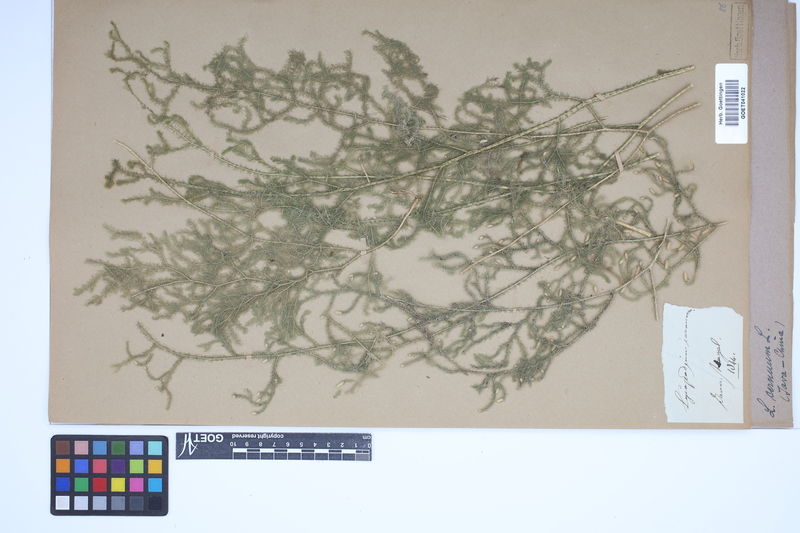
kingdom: Plantae
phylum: Tracheophyta
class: Lycopodiopsida
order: Lycopodiales
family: Lycopodiaceae
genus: Palhinhaea
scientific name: Palhinhaea cernua
